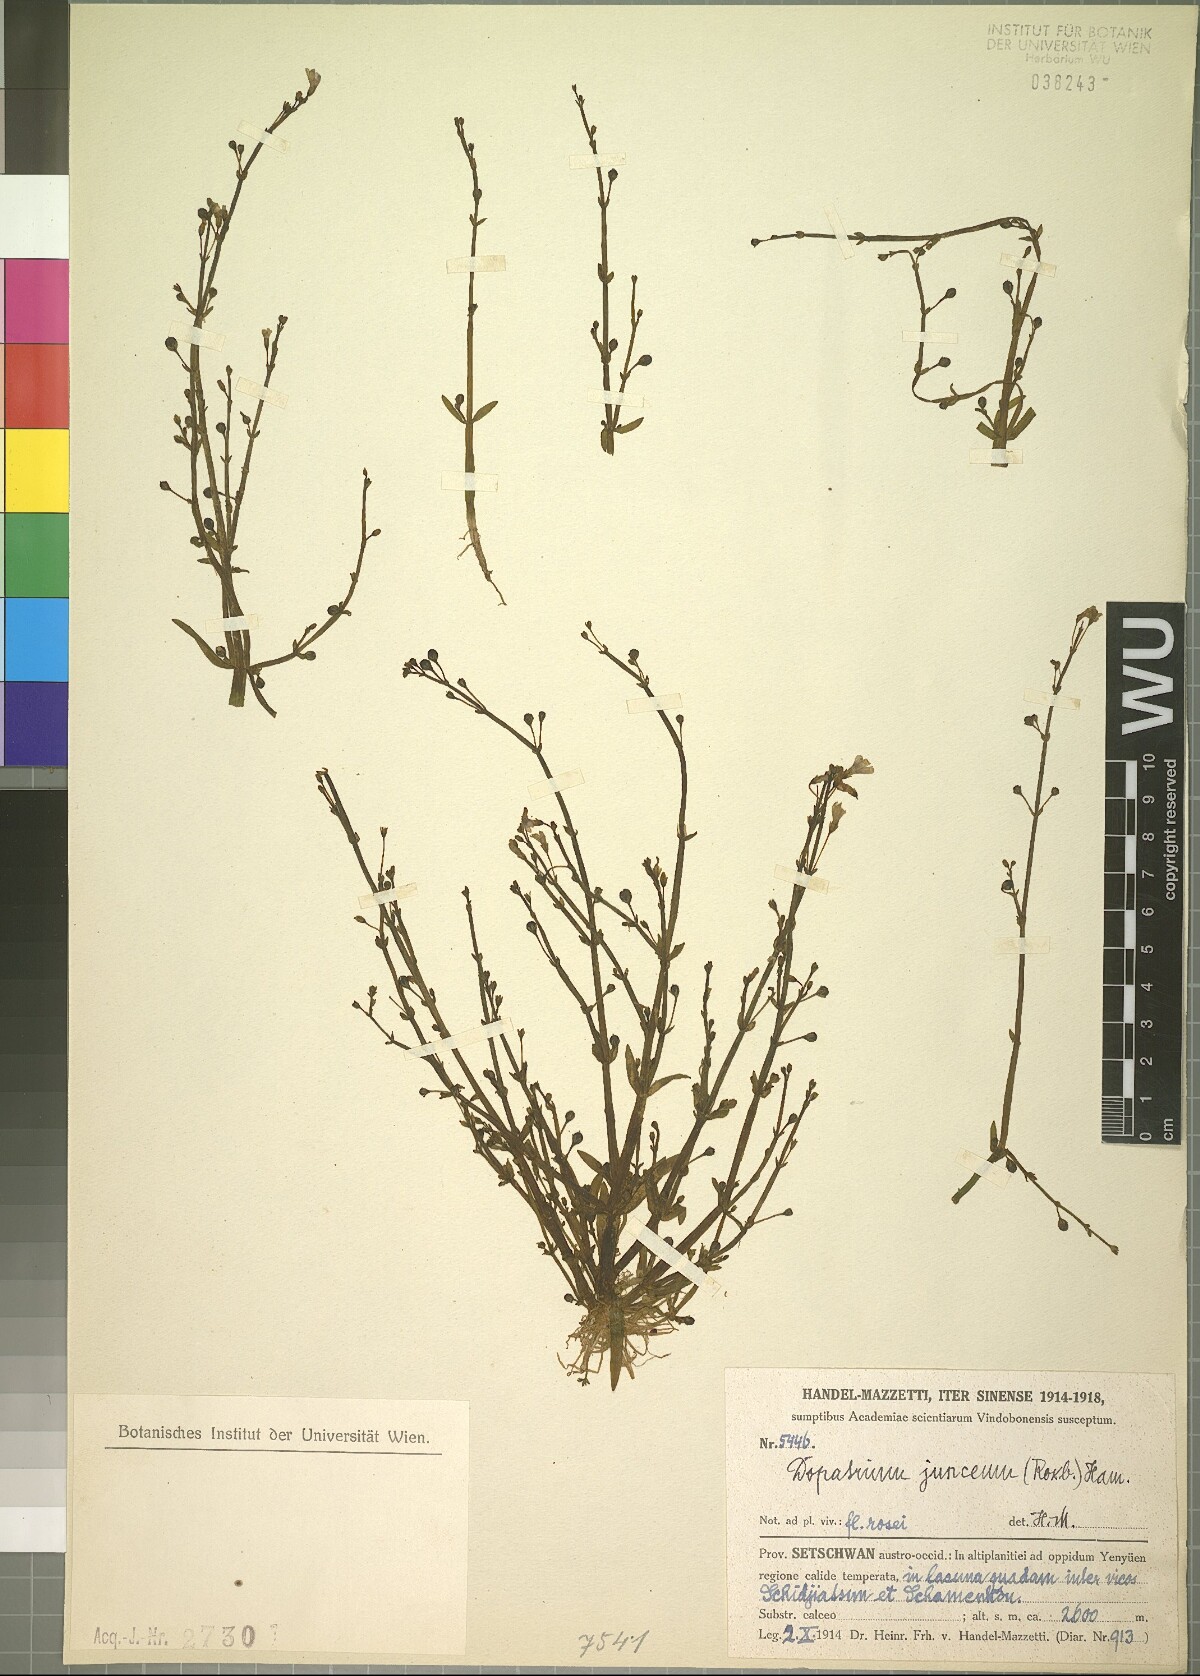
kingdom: Plantae
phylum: Tracheophyta
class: Magnoliopsida
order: Lamiales
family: Plantaginaceae
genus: Dopatrium
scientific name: Dopatrium junceum
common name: Horsefly's eye
